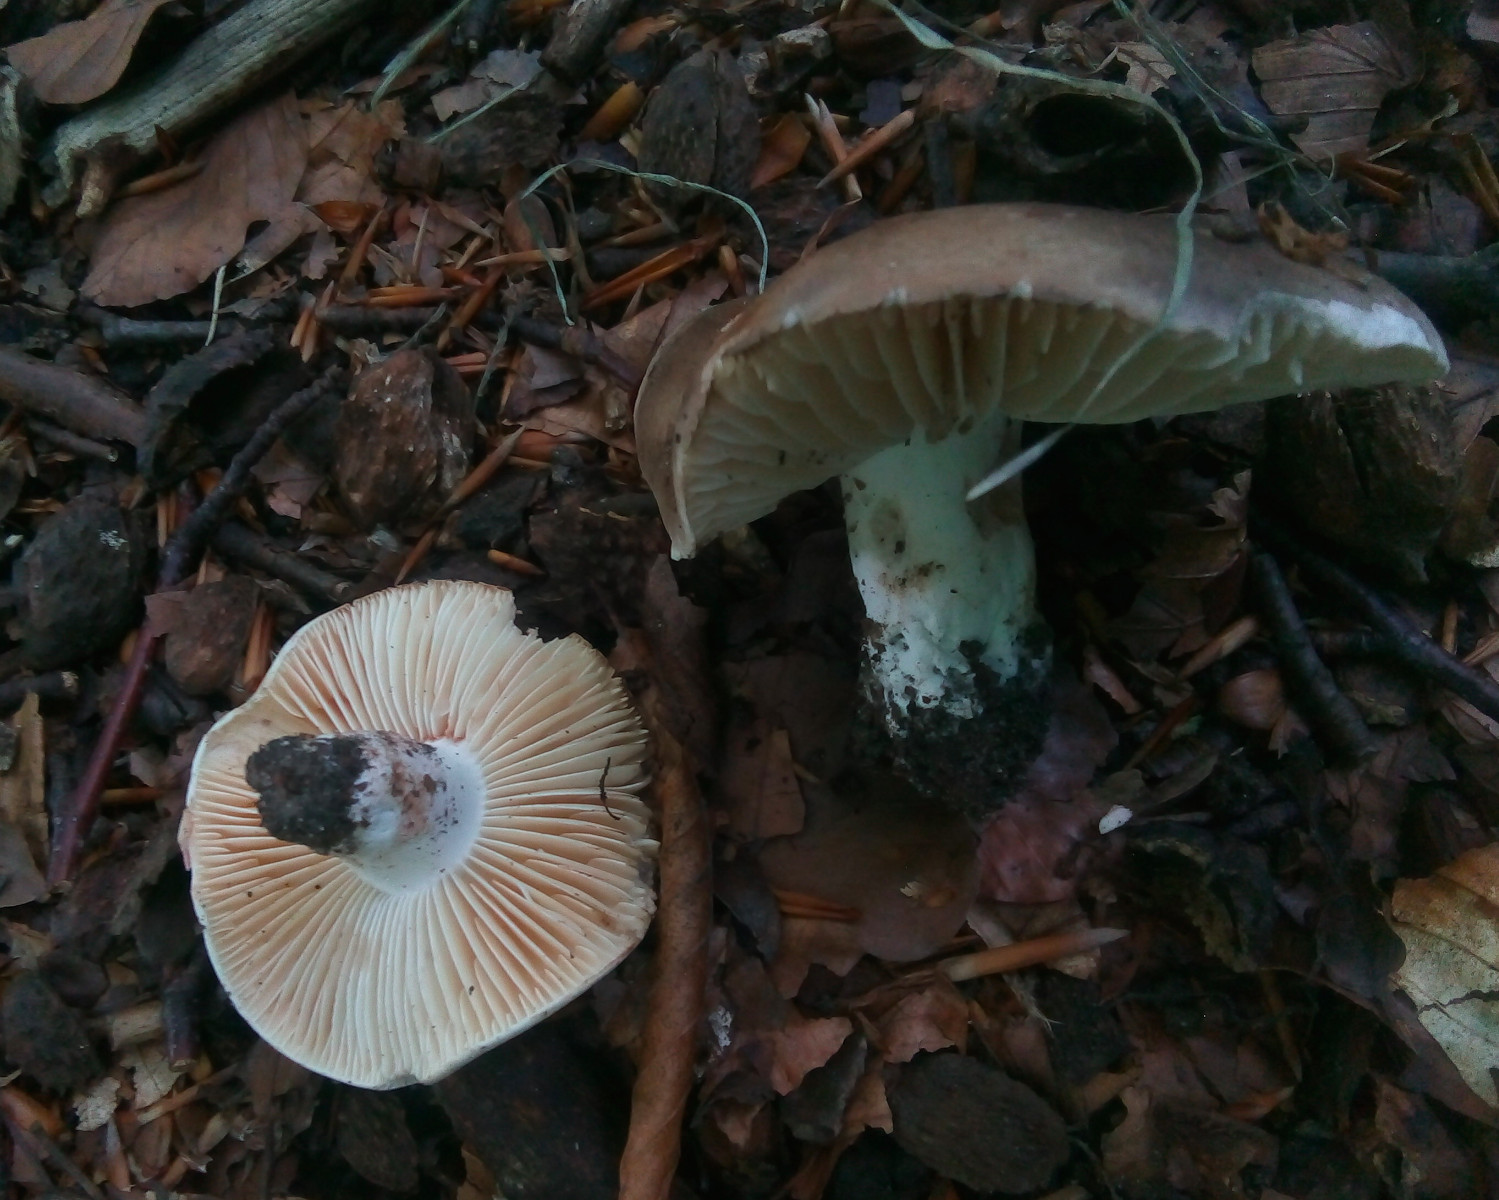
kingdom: Fungi
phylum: Basidiomycota
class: Agaricomycetes
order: Russulales
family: Russulaceae
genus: Russula
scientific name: Russula adusta
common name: sværtende skørhat
